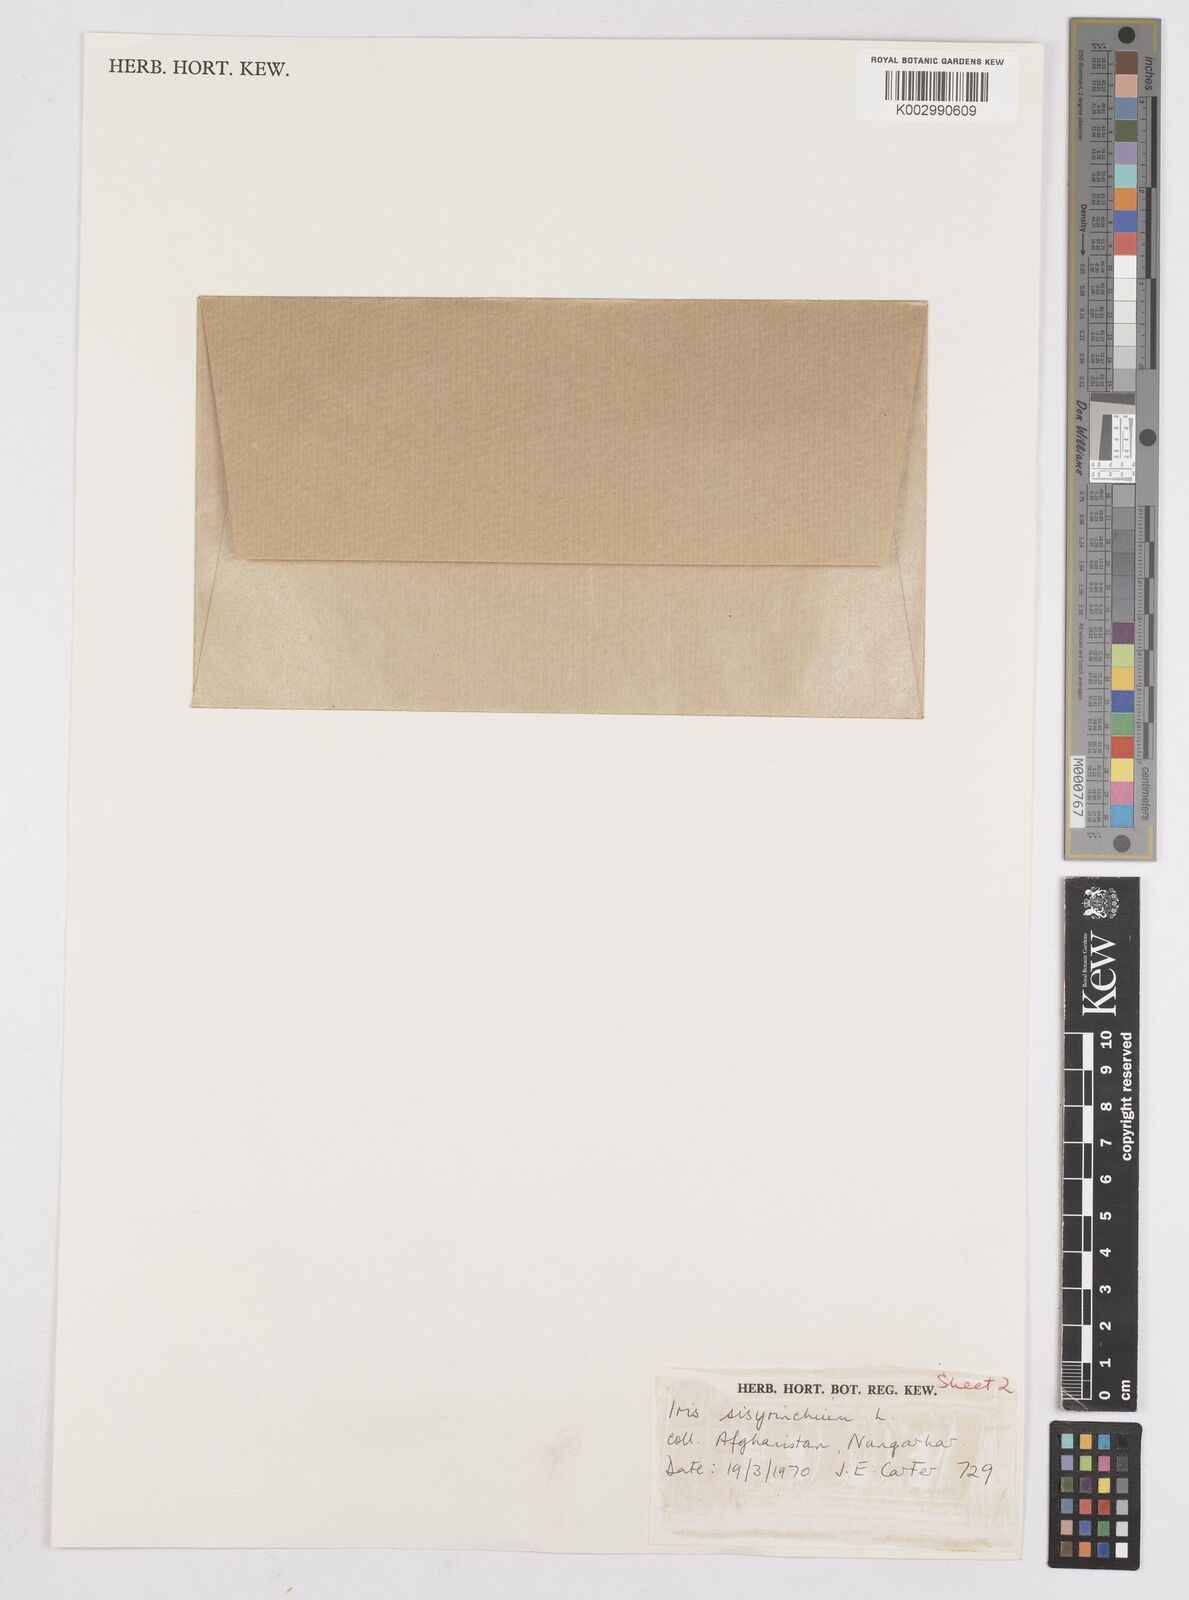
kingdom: Plantae
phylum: Tracheophyta
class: Liliopsida
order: Asparagales
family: Iridaceae
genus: Moraea
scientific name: Moraea sisyrinchium
